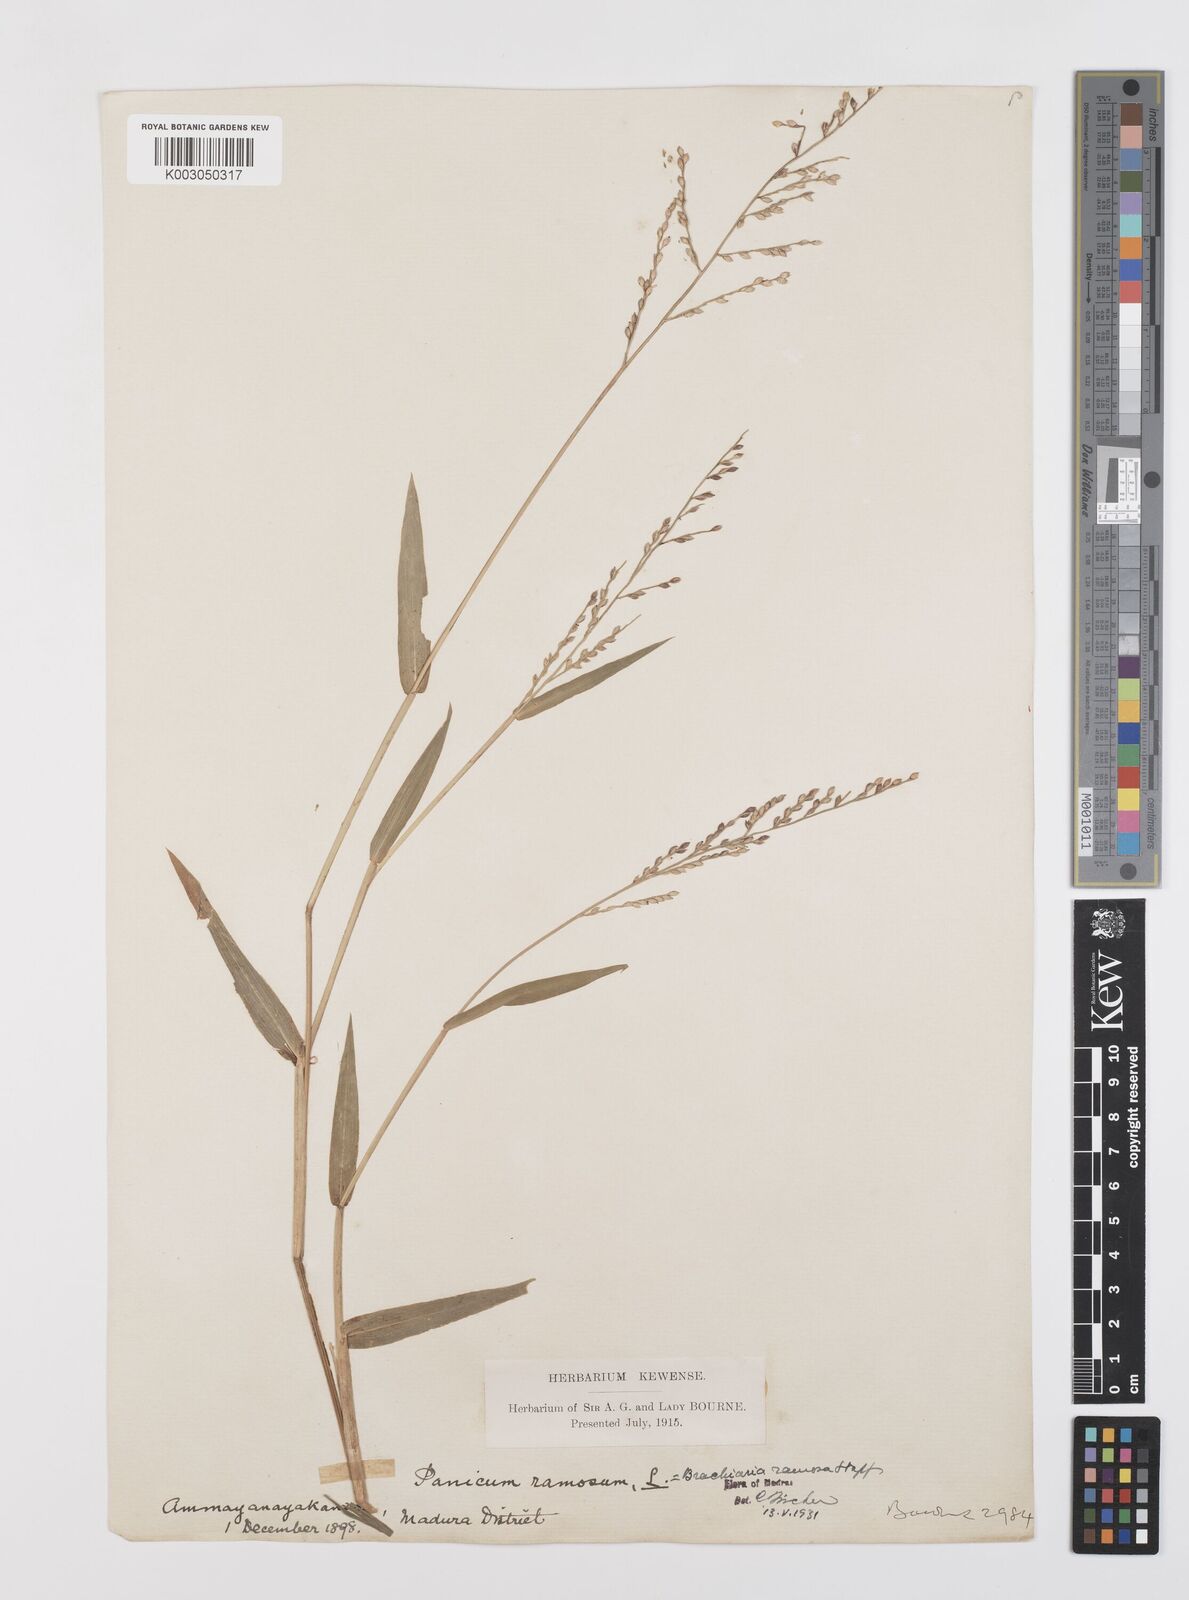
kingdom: Plantae
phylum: Tracheophyta
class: Liliopsida
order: Poales
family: Poaceae
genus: Urochloa
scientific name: Urochloa ramosa
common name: Browntop millet
